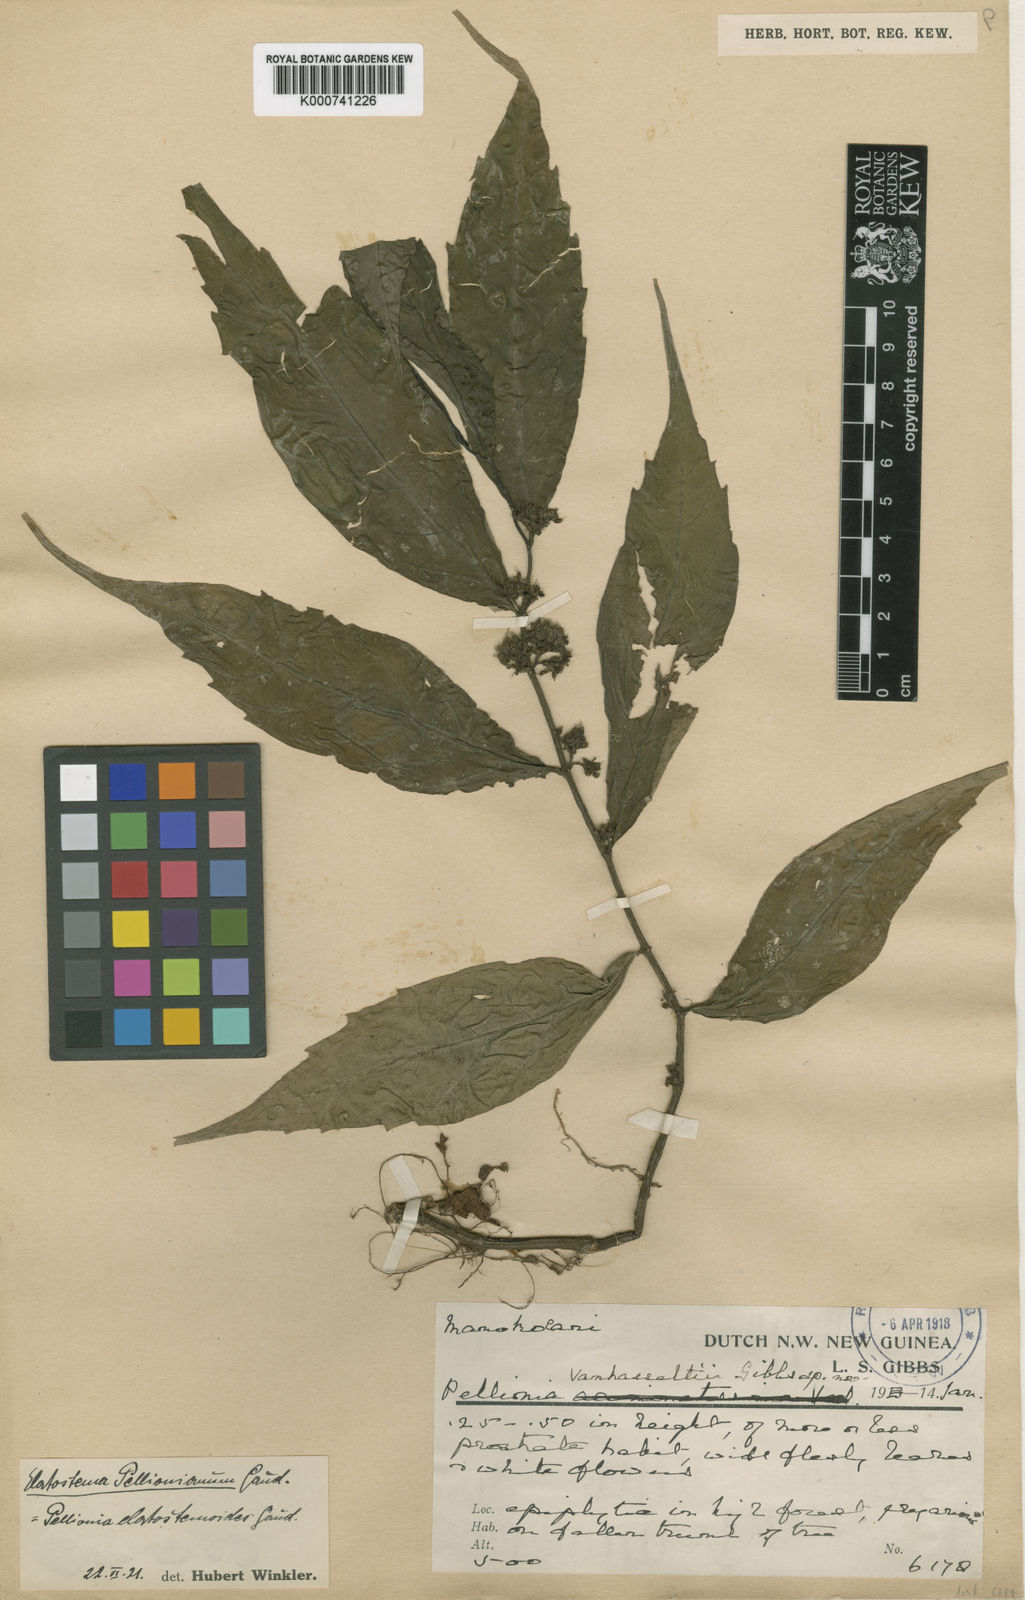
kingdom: Plantae
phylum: Tracheophyta
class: Magnoliopsida
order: Rosales
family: Urticaceae
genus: Elatostema
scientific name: Elatostema sinuatum
